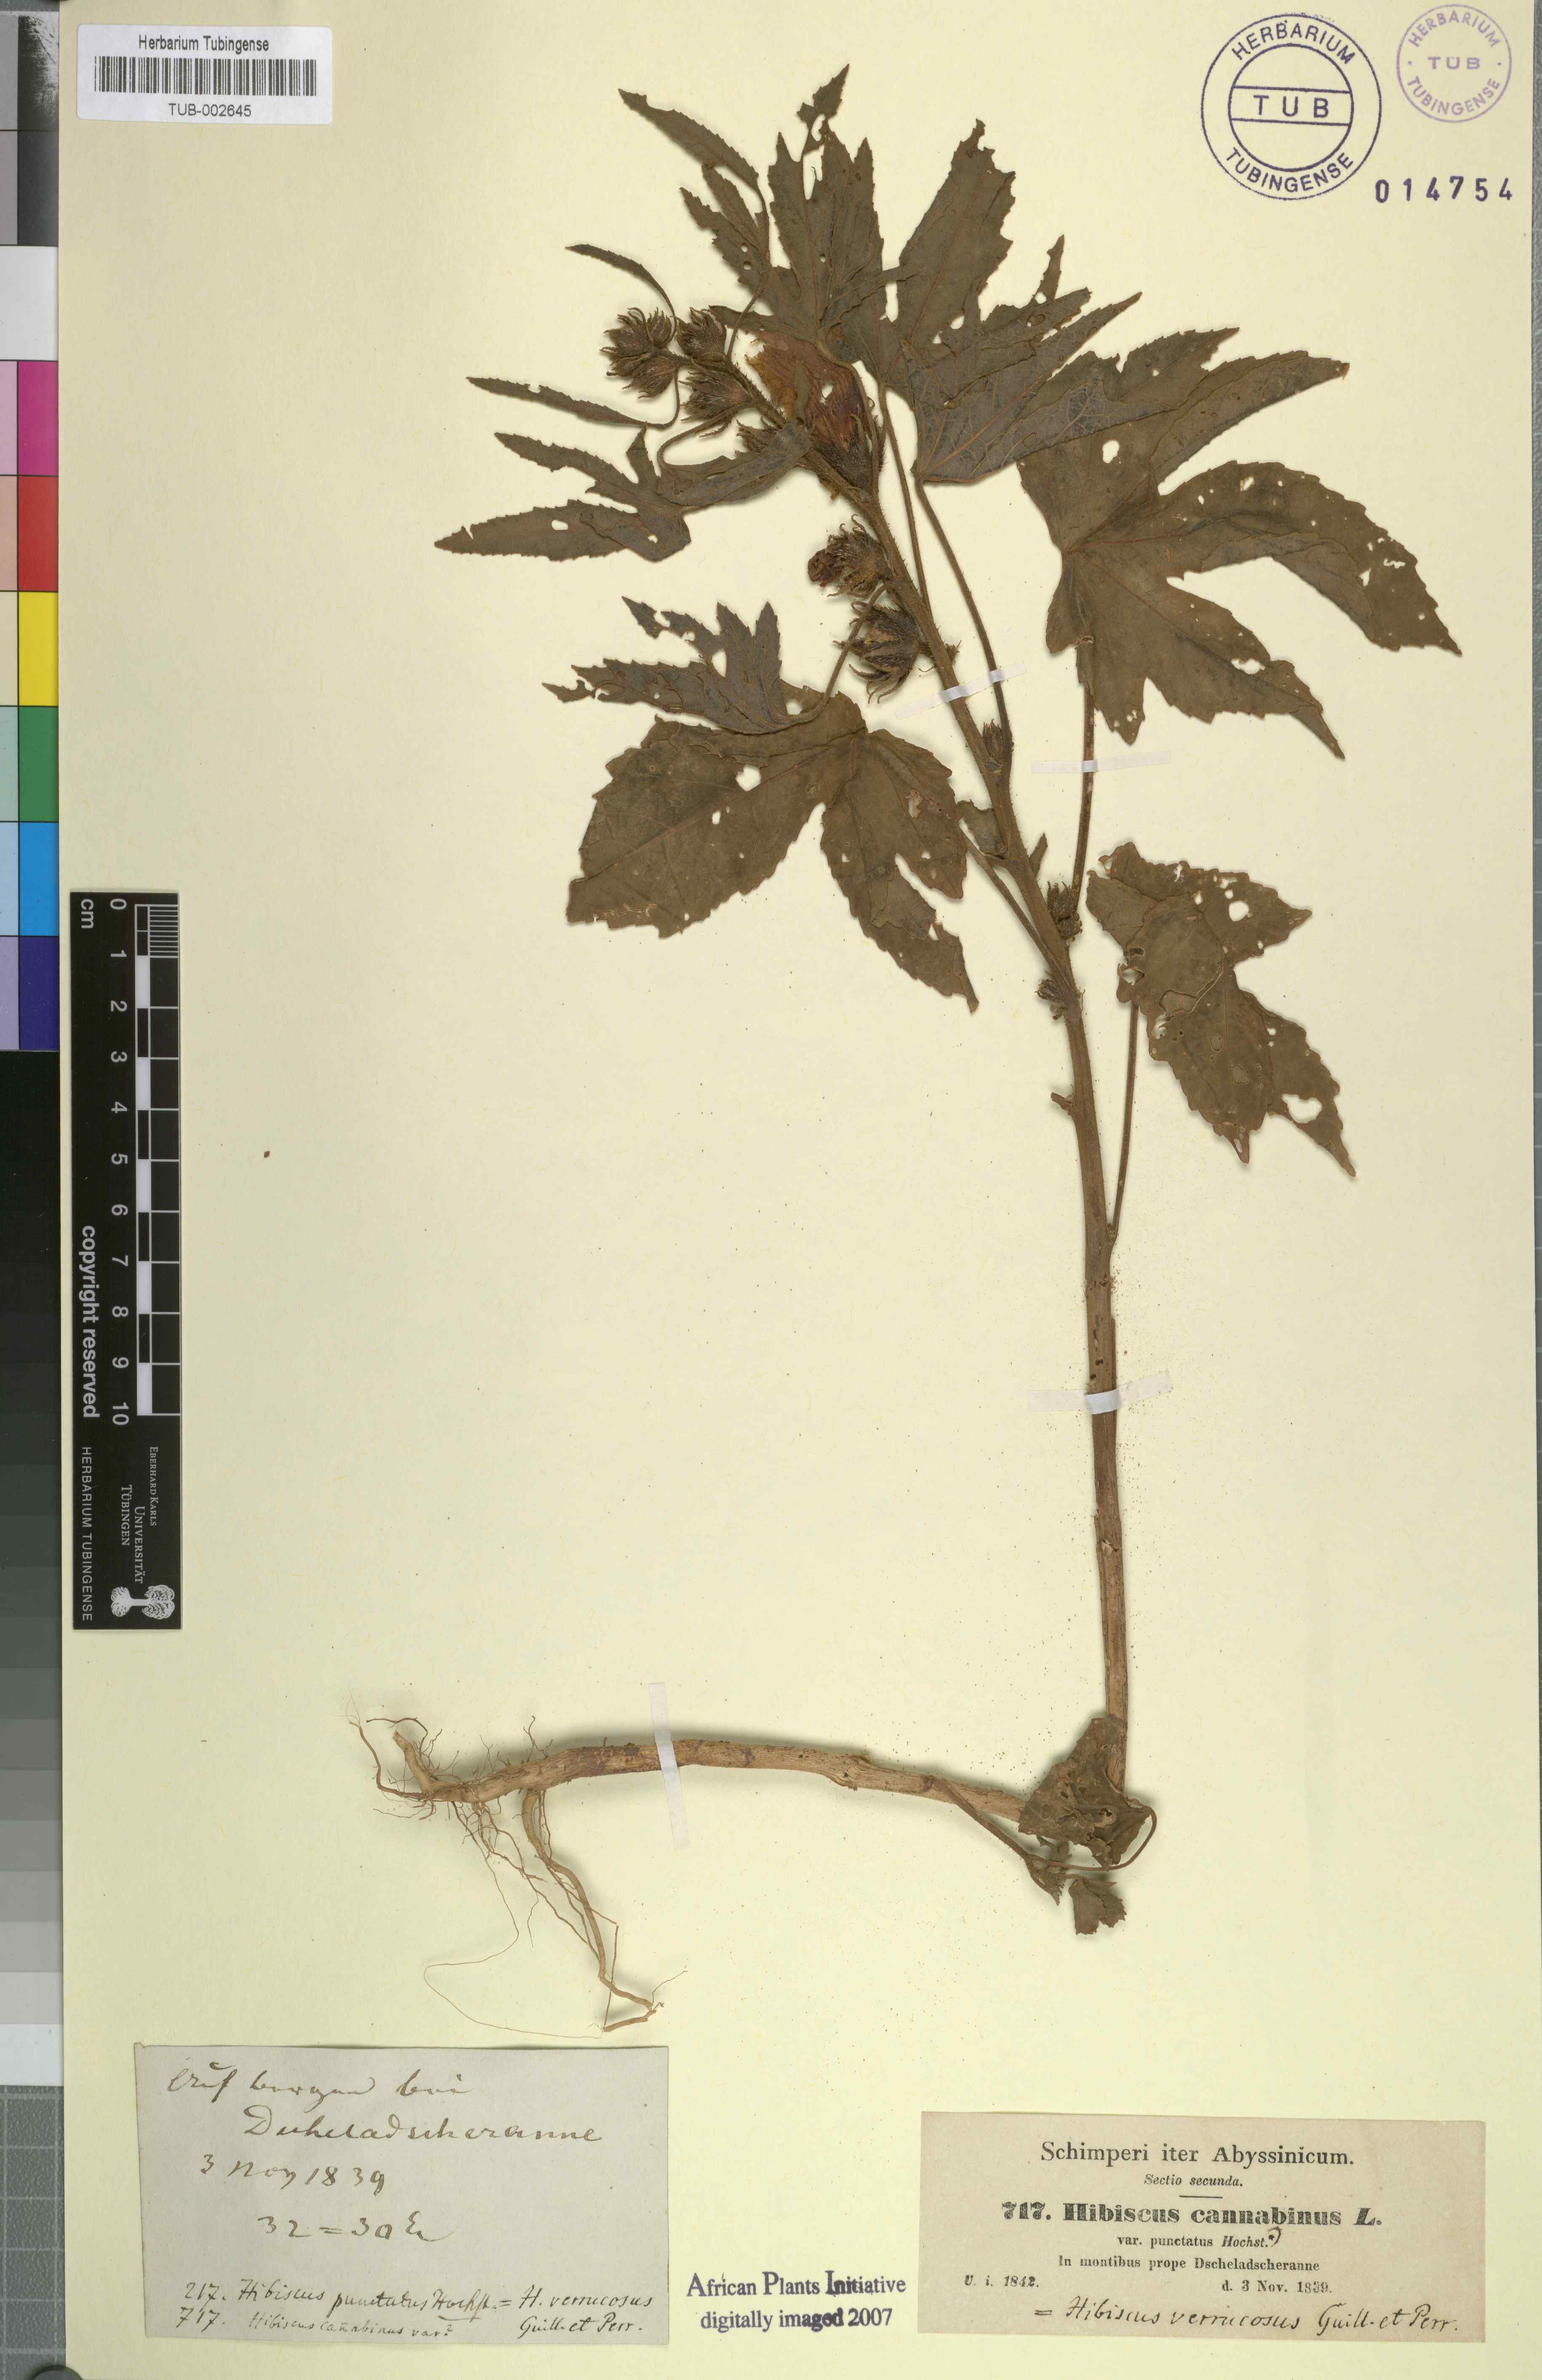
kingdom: Plantae
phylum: Tracheophyta
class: Magnoliopsida
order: Malvales
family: Malvaceae
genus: Hibiscus
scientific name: Hibiscus cannabinus
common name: Brown indianhemp
